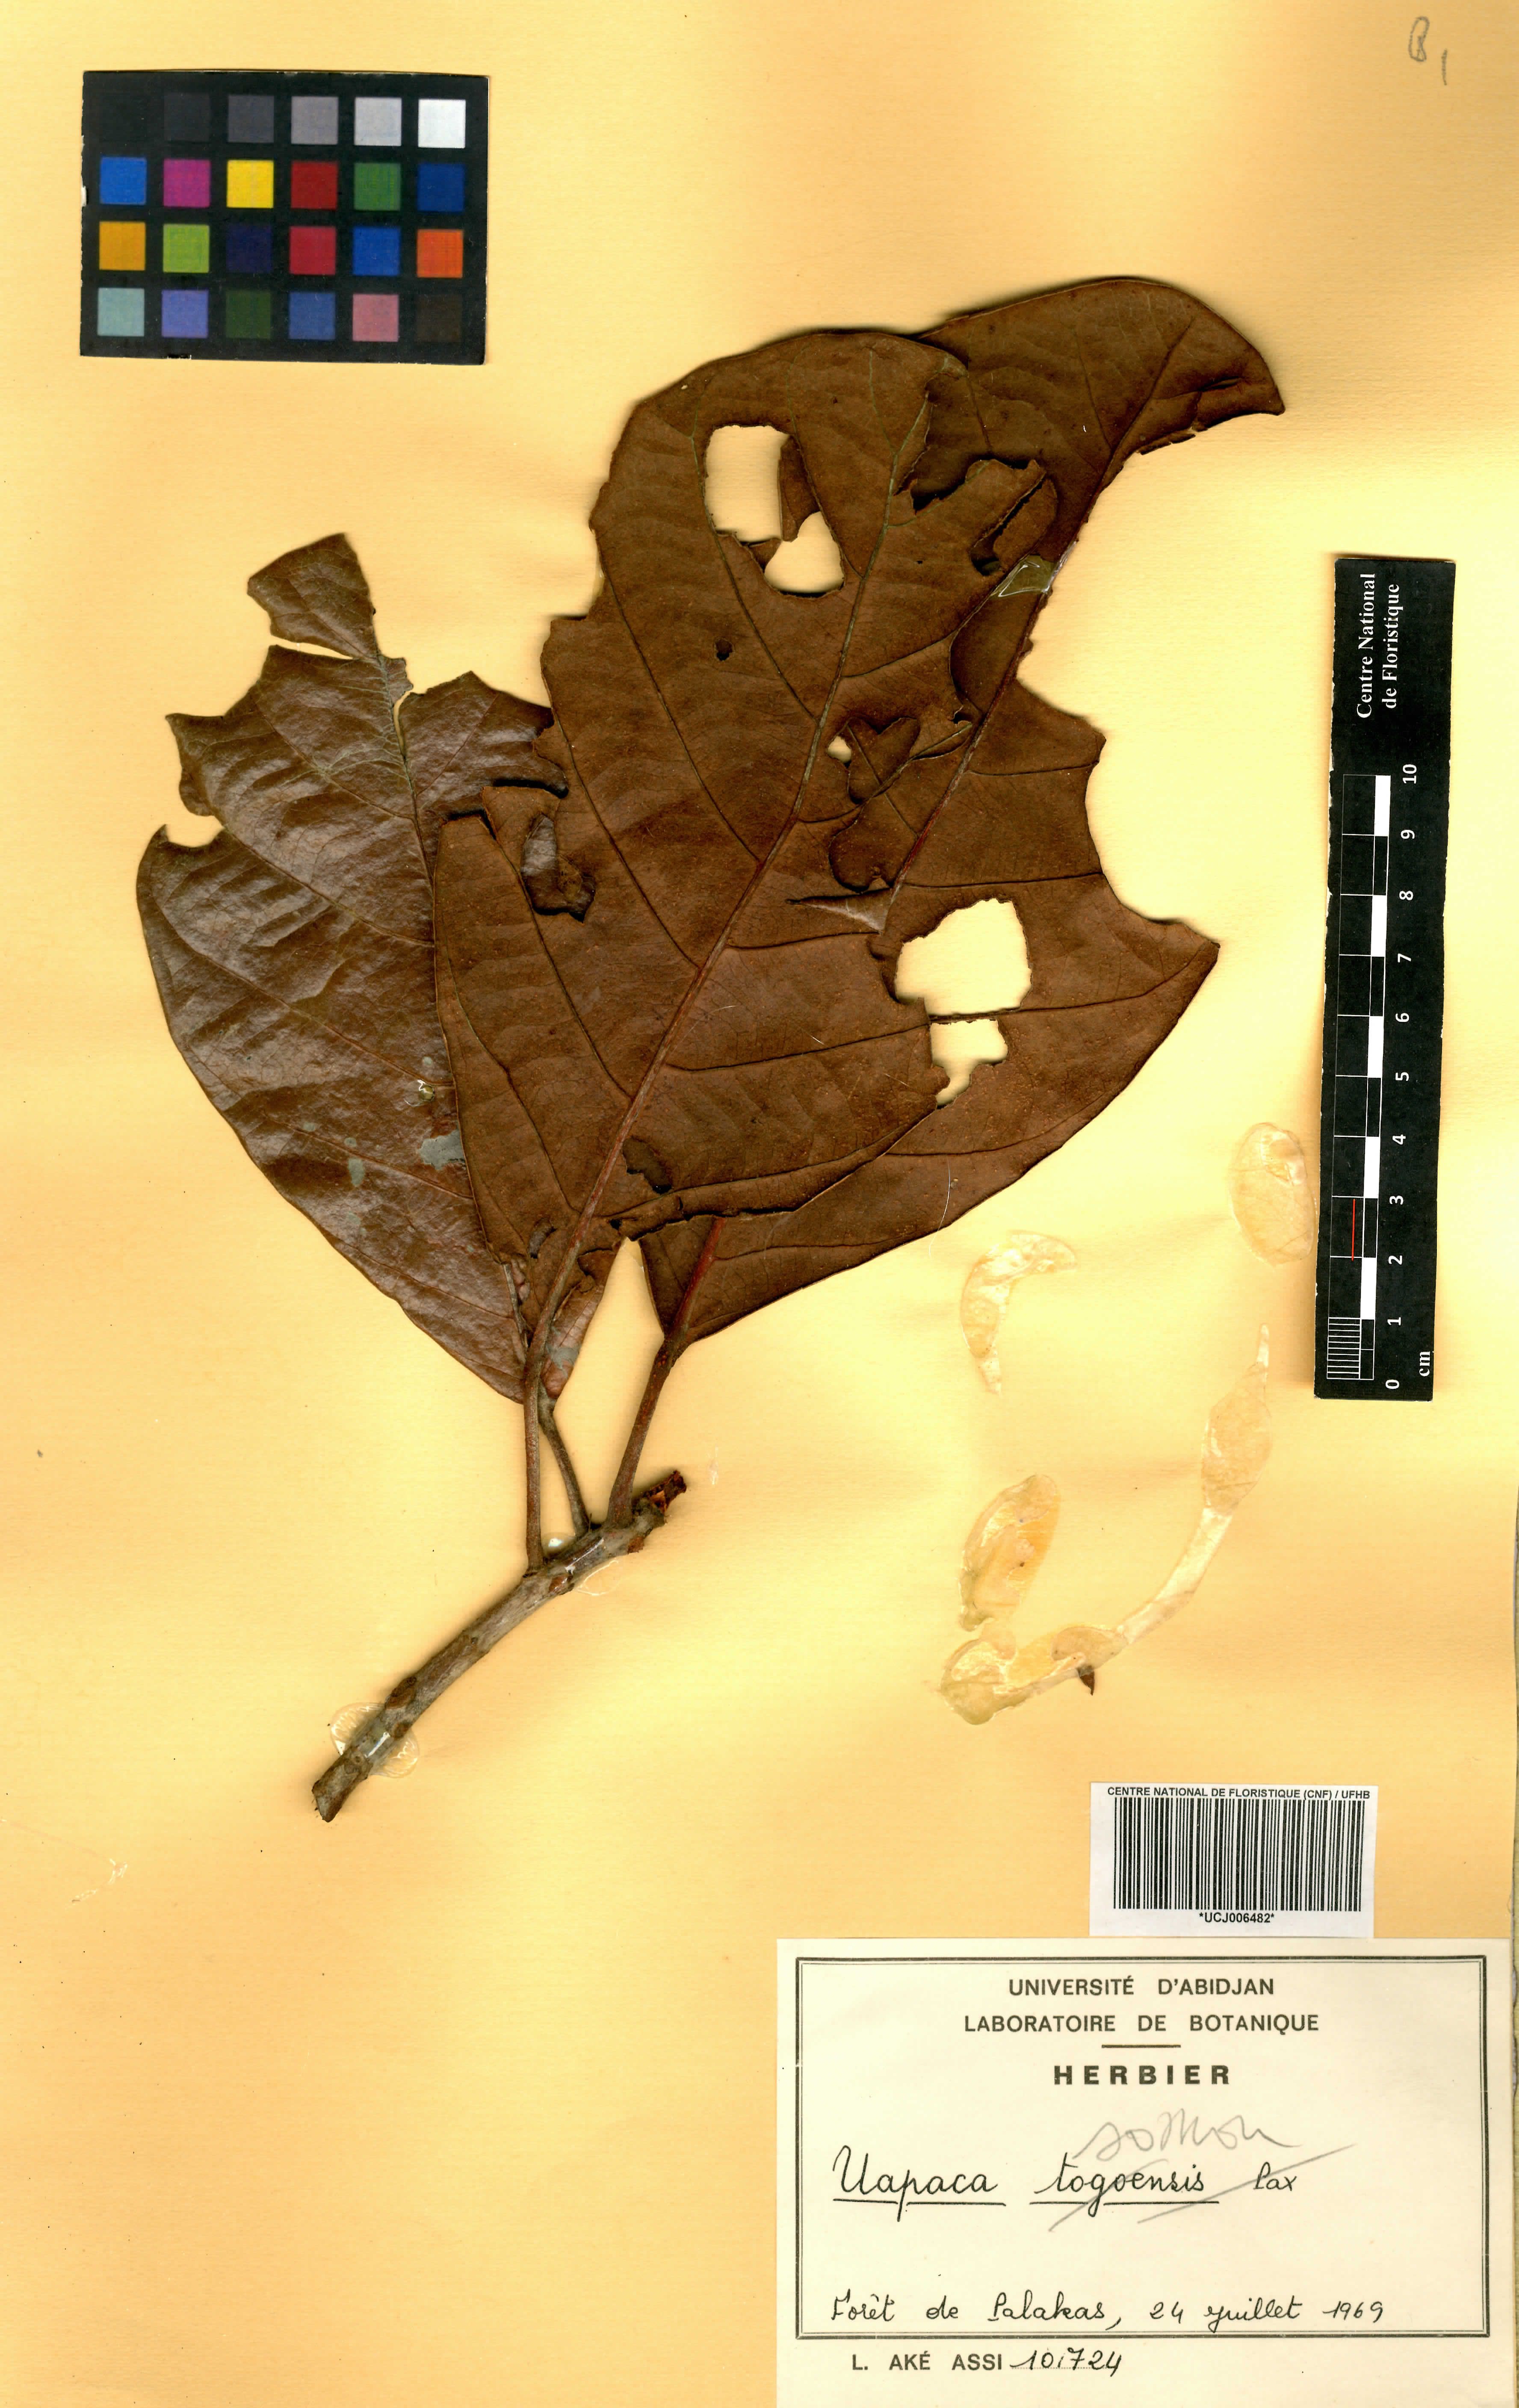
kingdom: Plantae
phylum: Tracheophyta
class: Magnoliopsida
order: Malpighiales
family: Phyllanthaceae
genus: Uapaca
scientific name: Uapaca togoensis
